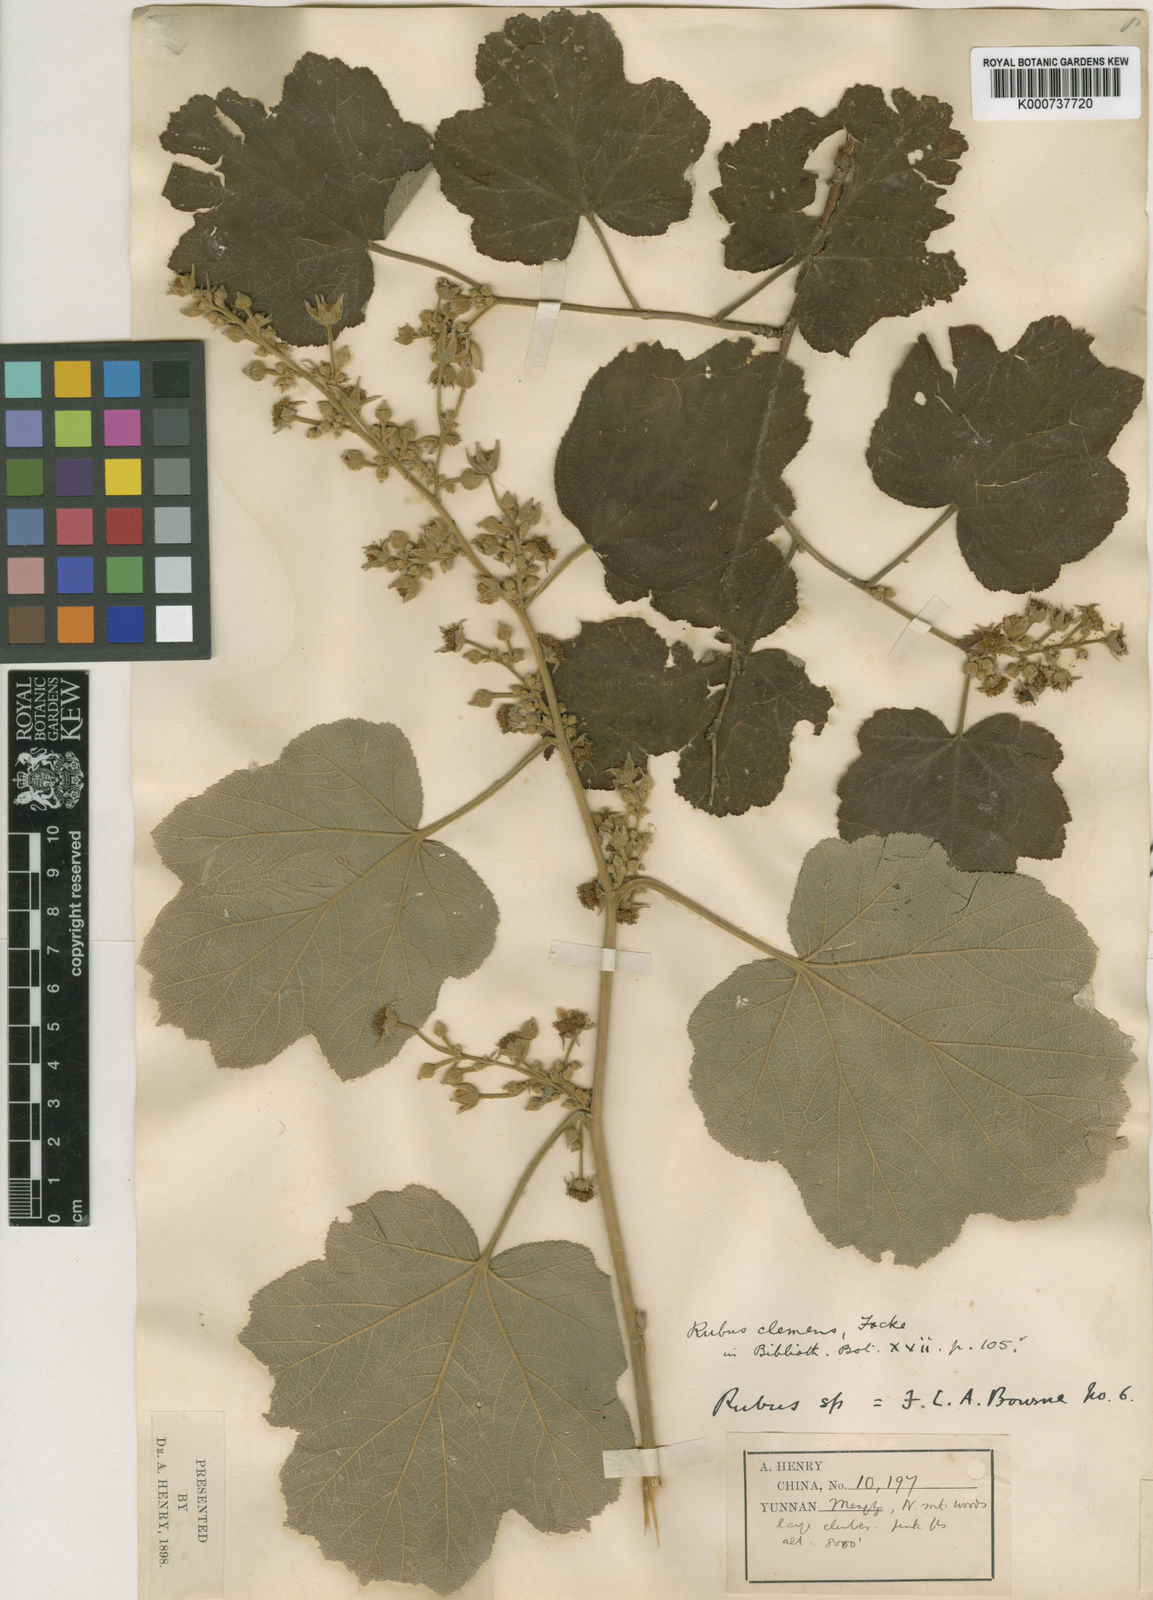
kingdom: Plantae
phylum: Tracheophyta
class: Magnoliopsida
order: Rosales
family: Rosaceae
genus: Rubus
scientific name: Rubus setchuenensis
